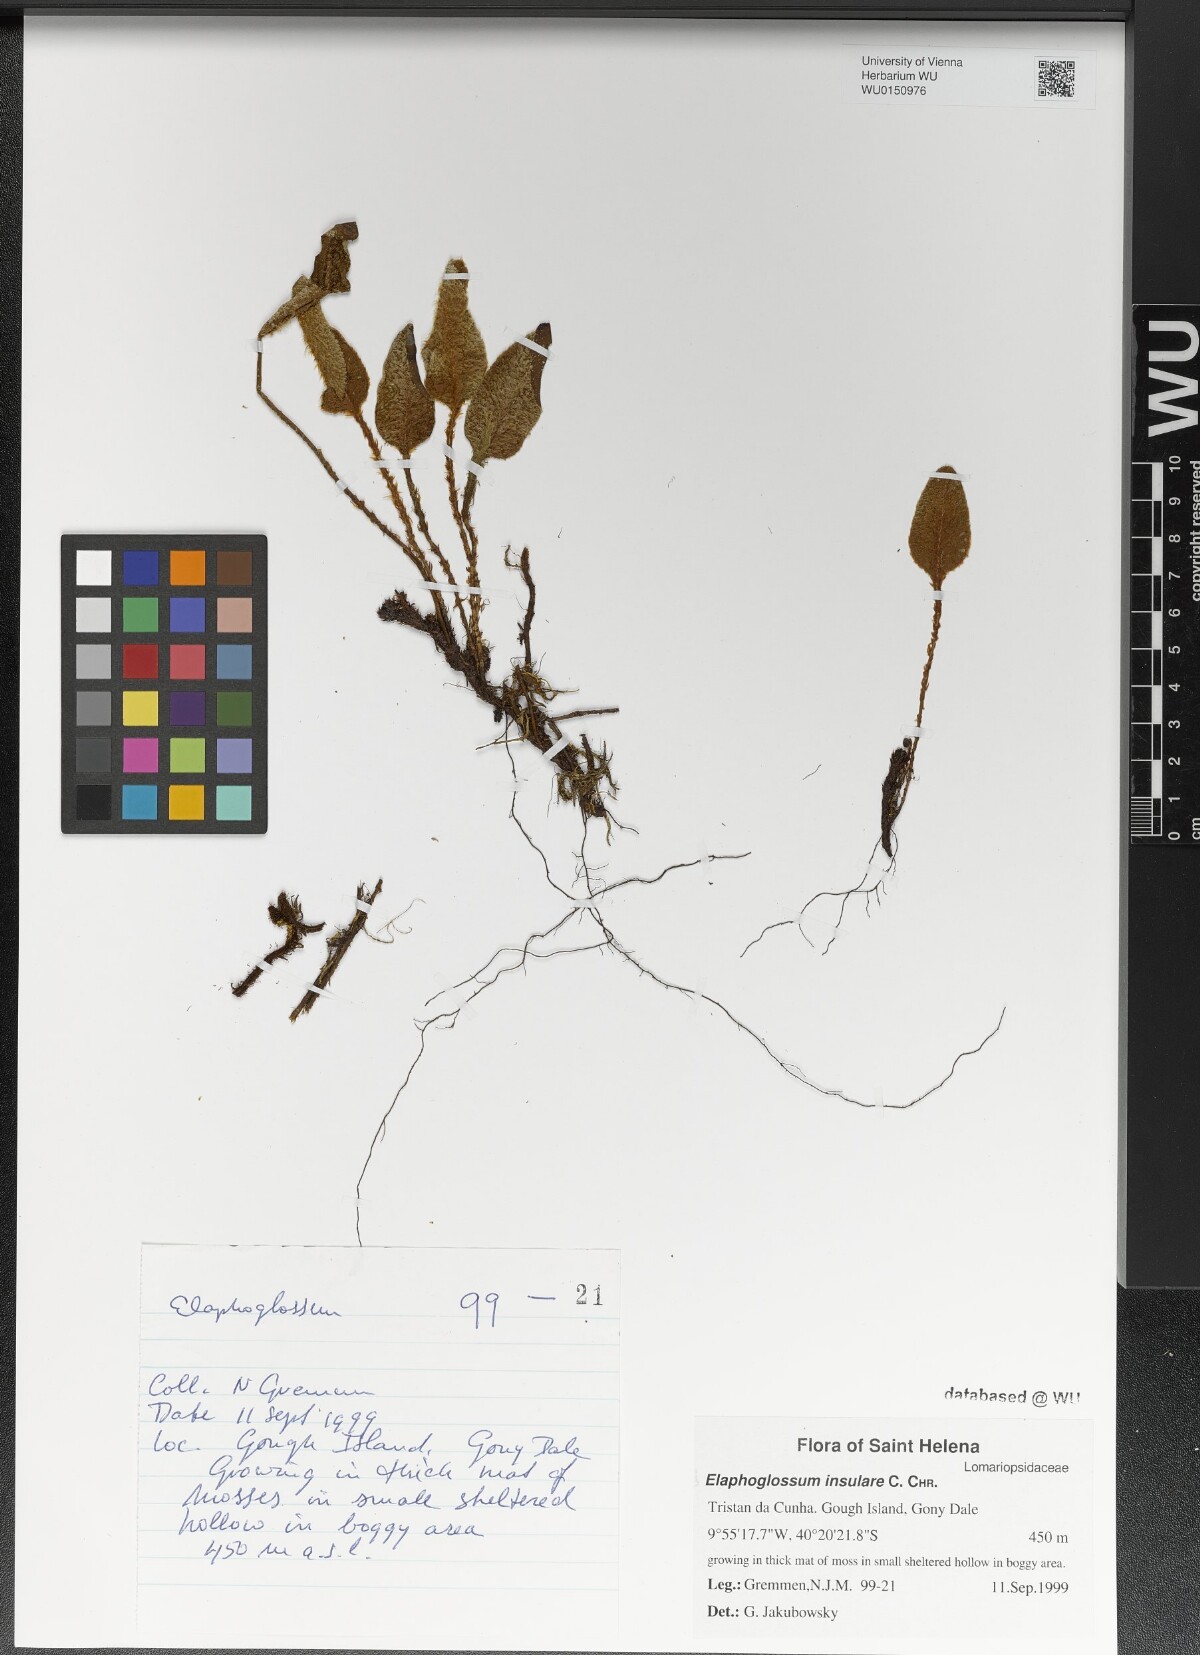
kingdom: Plantae
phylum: Tracheophyta
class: Polypodiopsida
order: Polypodiales
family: Dryopteridaceae
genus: Elaphoglossum
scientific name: Elaphoglossum insulare
